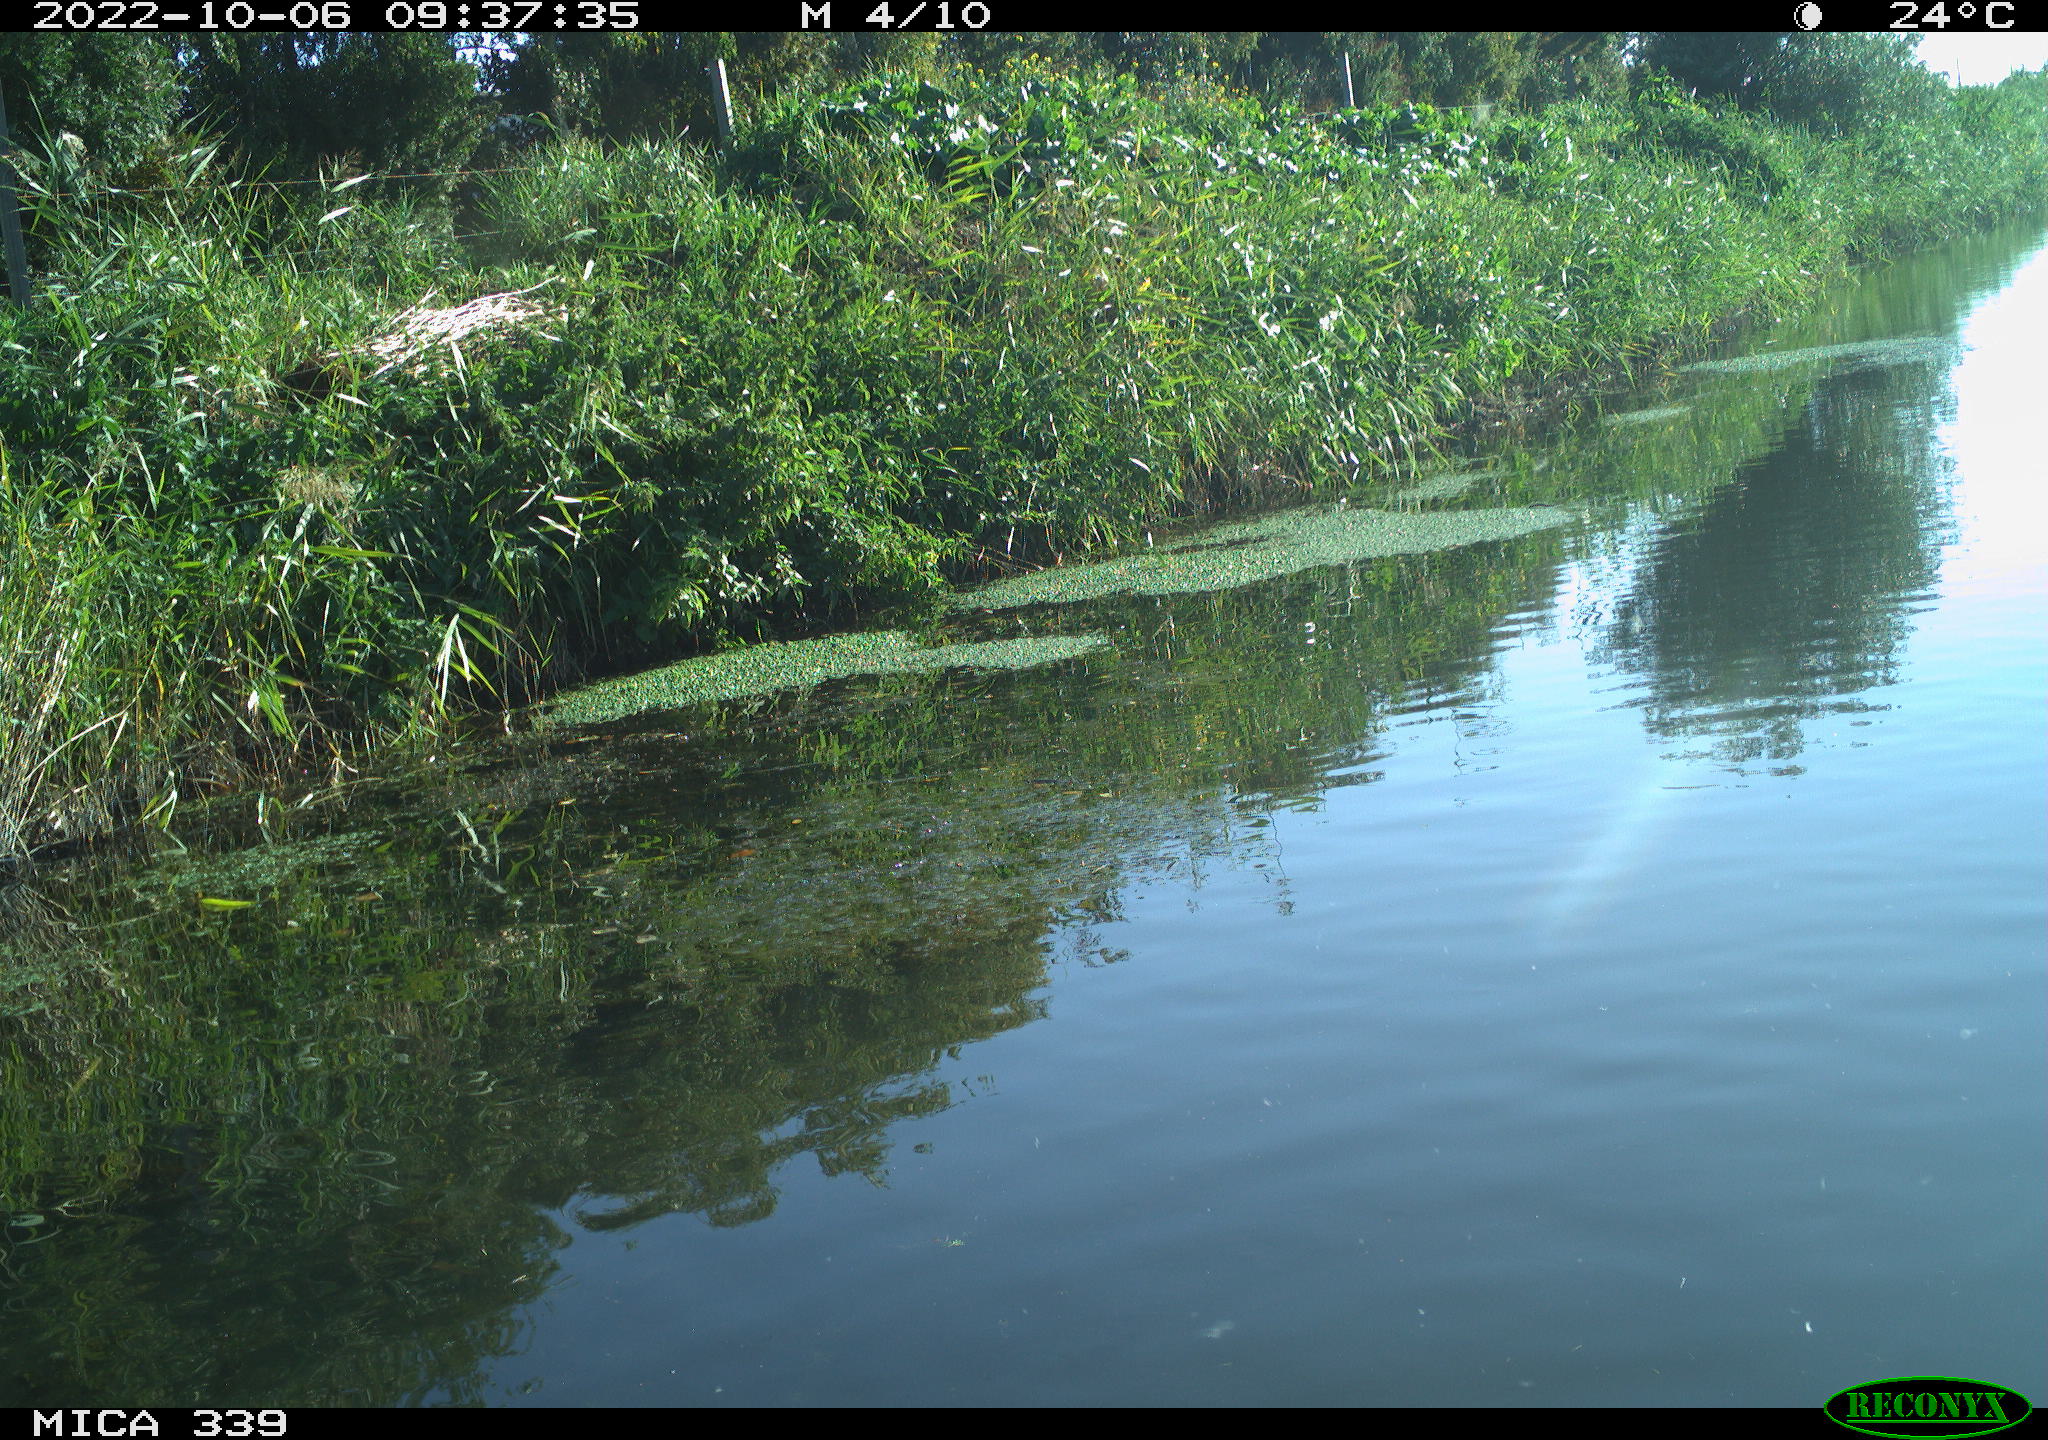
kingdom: Animalia
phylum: Chordata
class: Aves
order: Pelecaniformes
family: Ardeidae
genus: Ardea
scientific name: Ardea cinerea
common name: Grey heron
